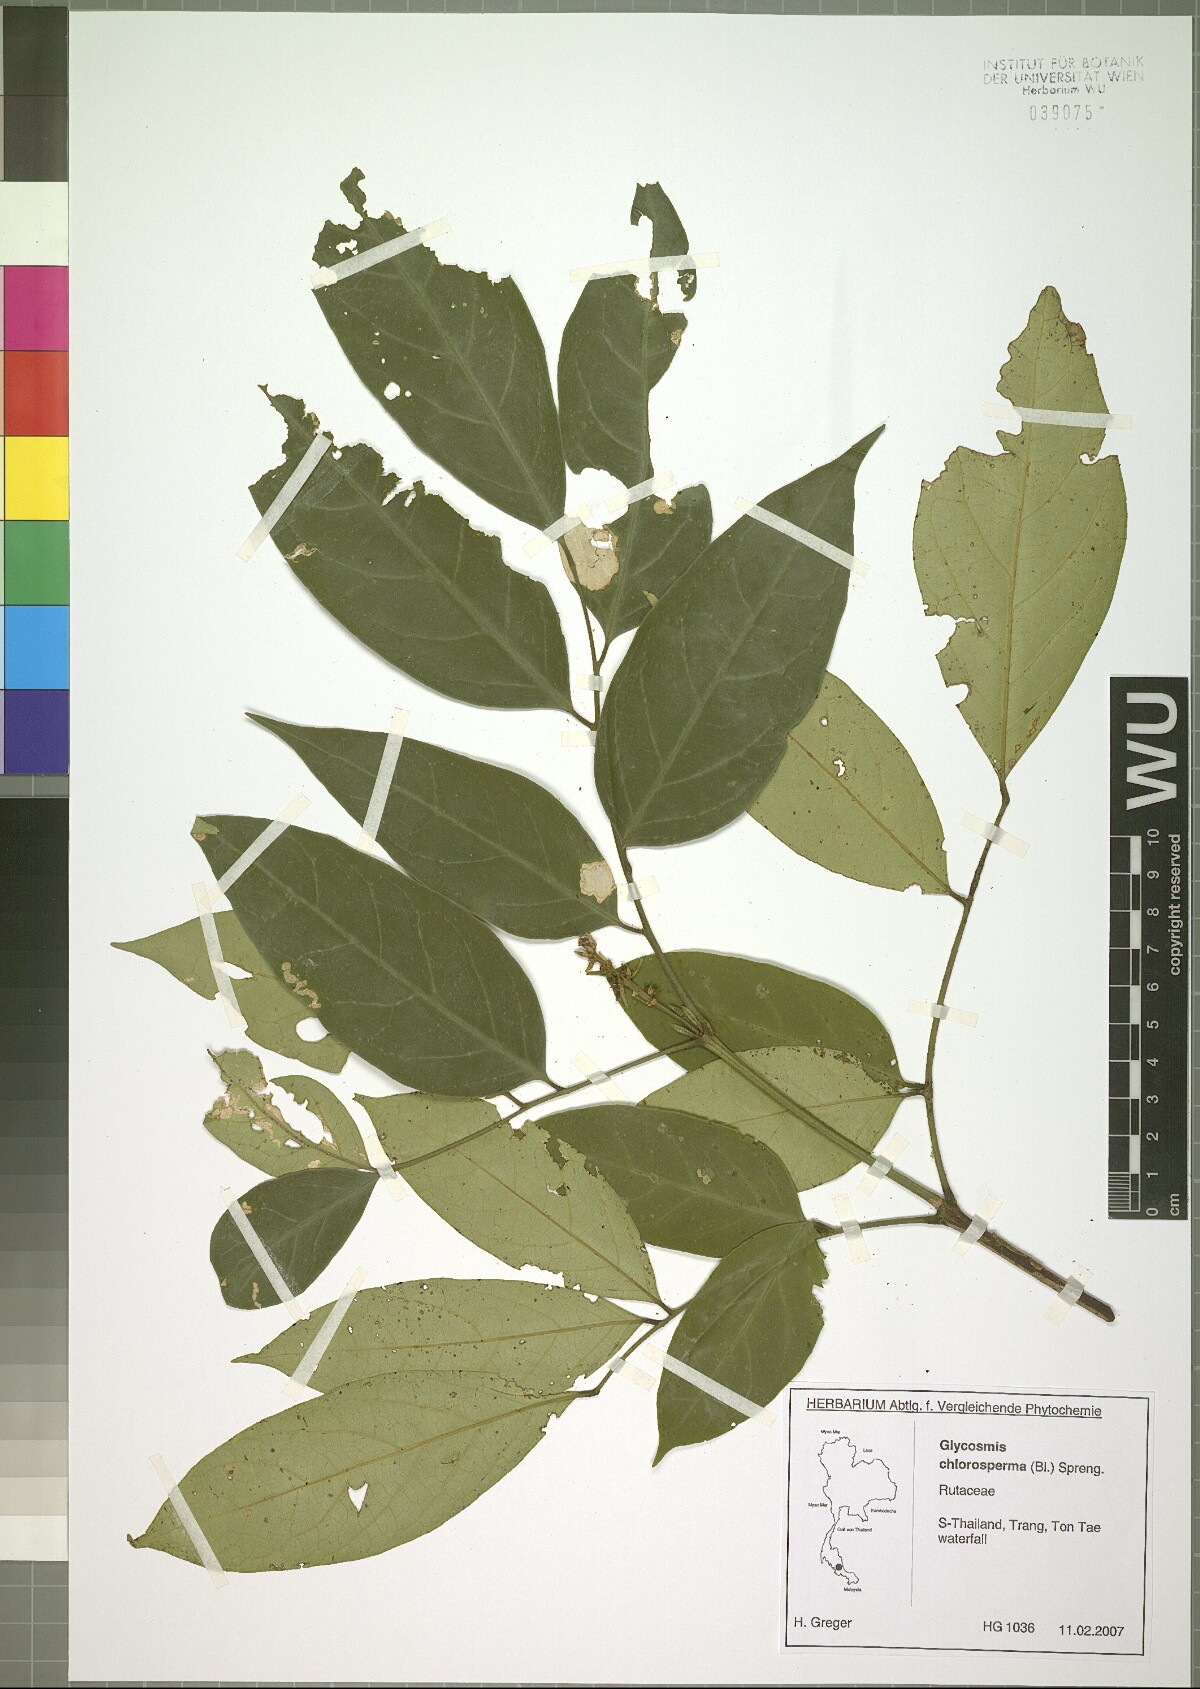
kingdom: Plantae
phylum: Tracheophyta
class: Magnoliopsida
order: Sapindales
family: Rutaceae
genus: Glycosmis
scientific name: Glycosmis chlorosperma
